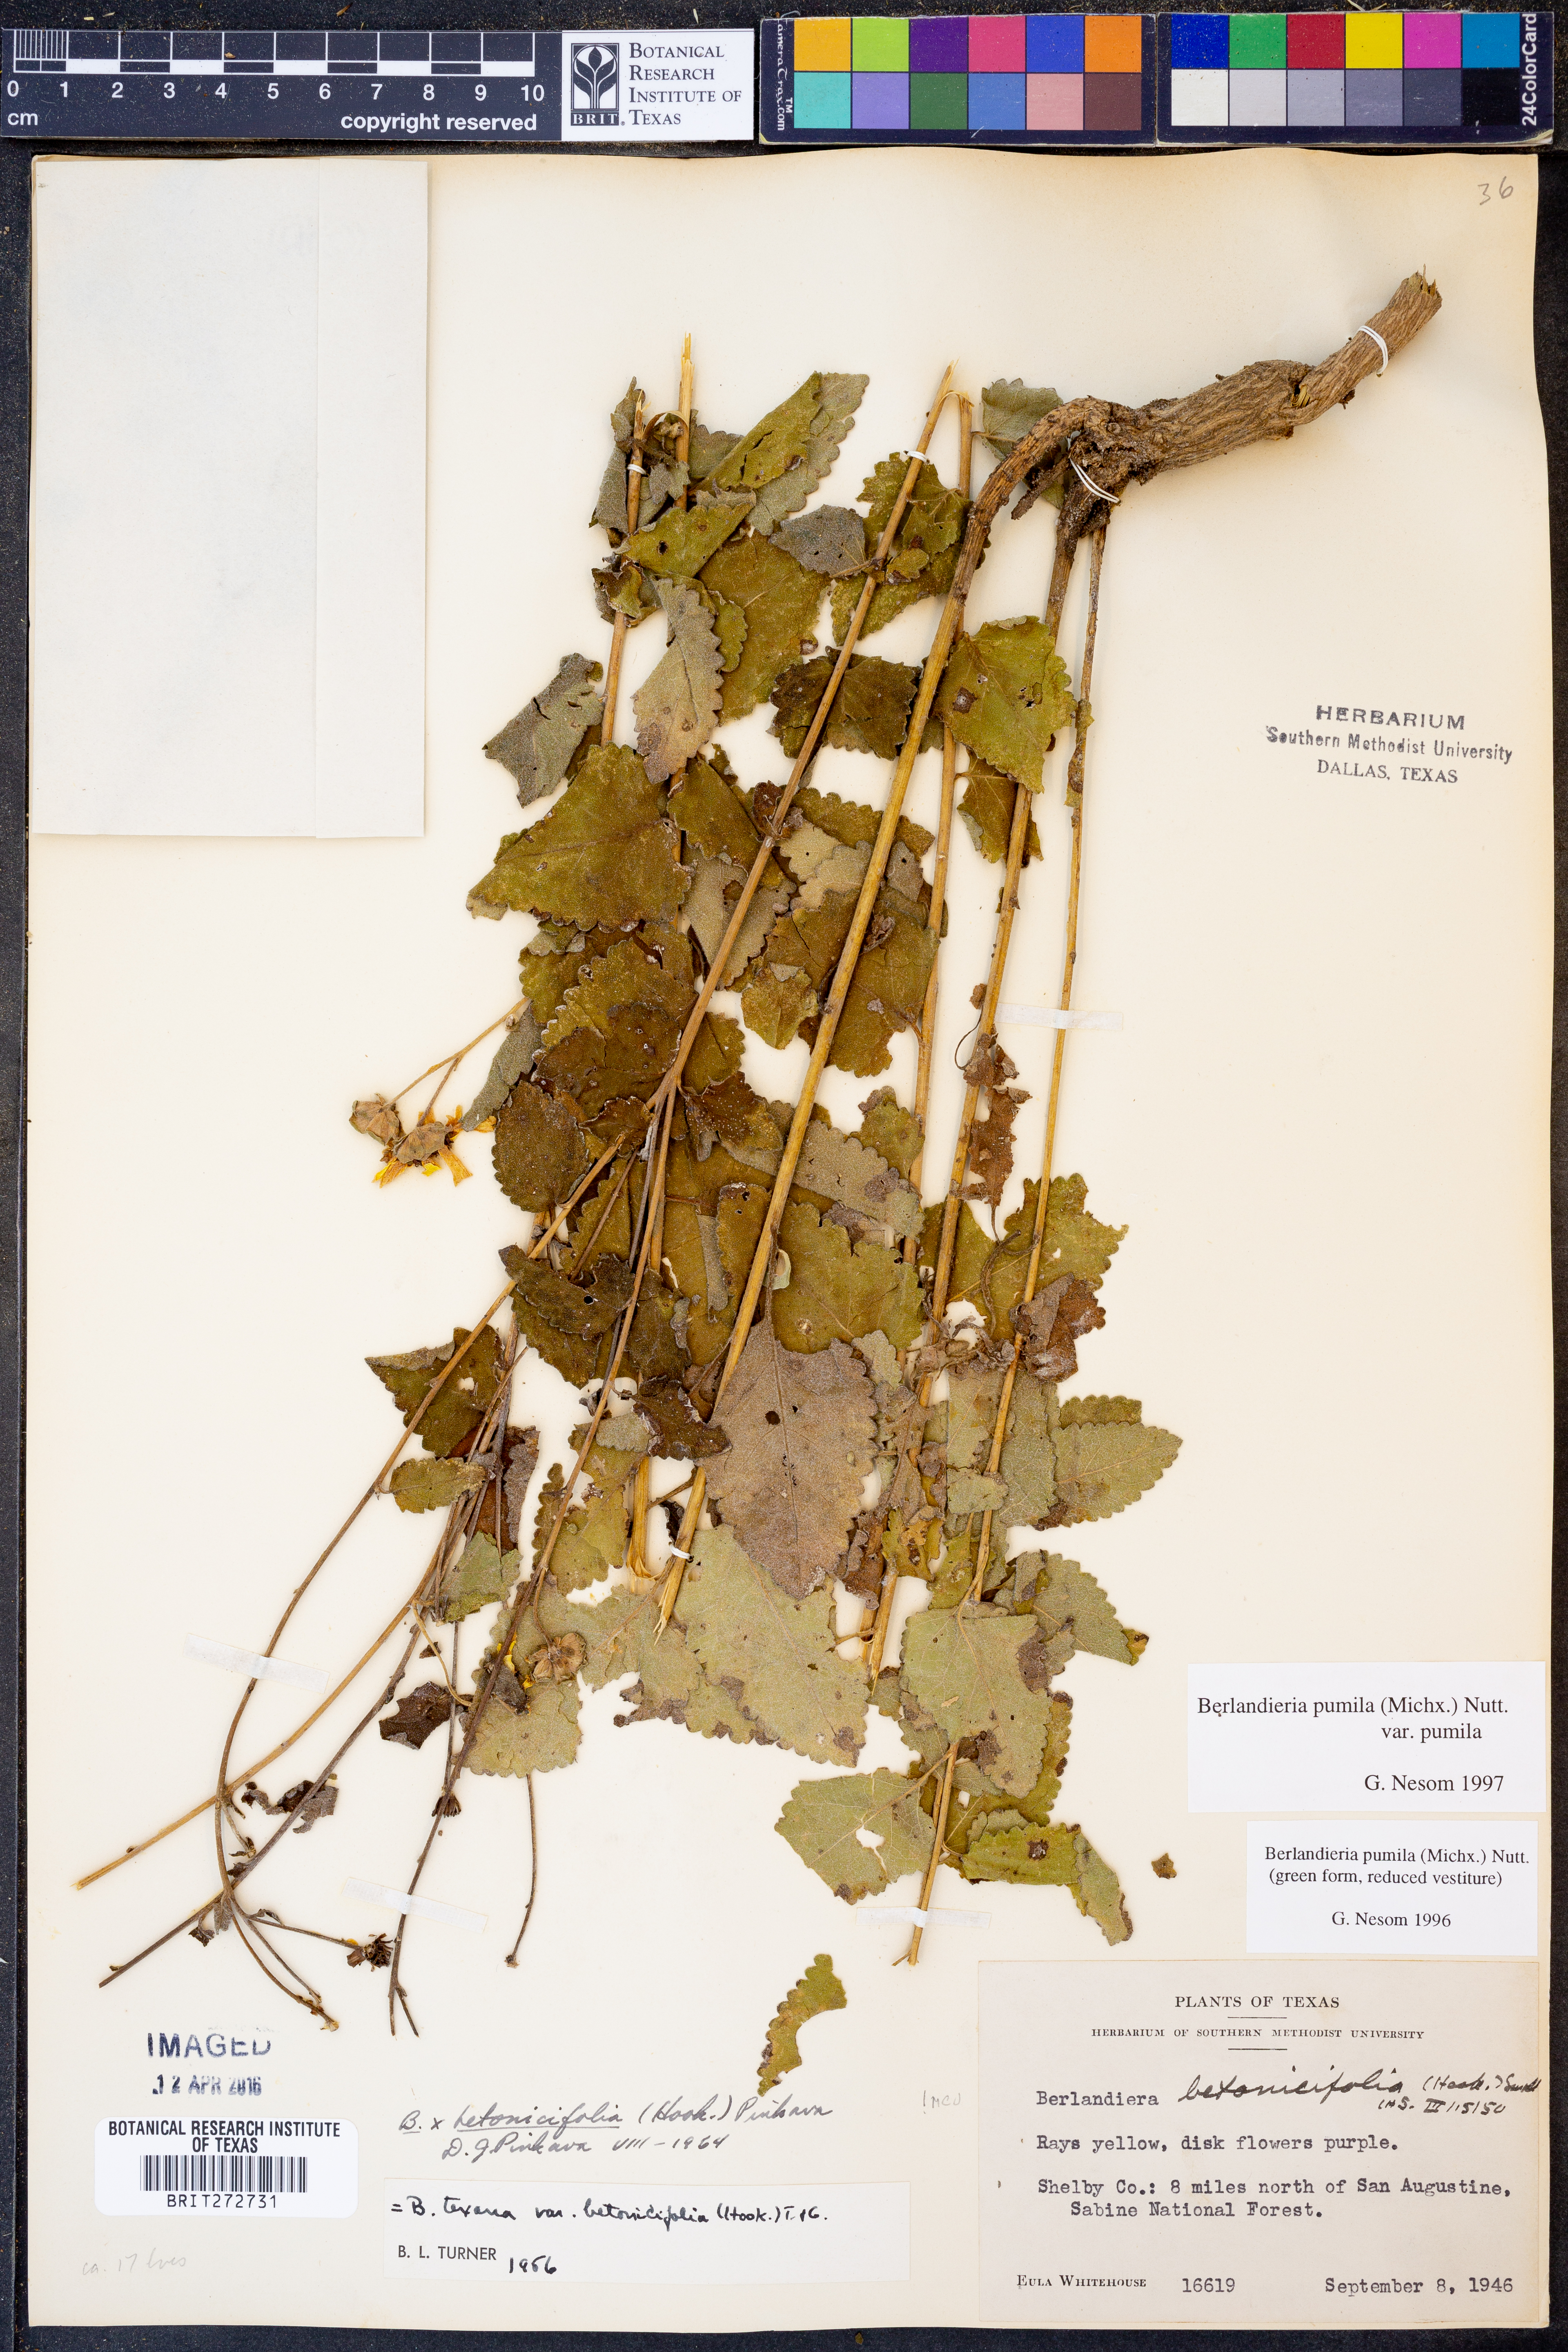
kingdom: Plantae
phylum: Tracheophyta
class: Magnoliopsida
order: Asterales
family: Asteraceae
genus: Berlandiera
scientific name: Berlandiera pumila
